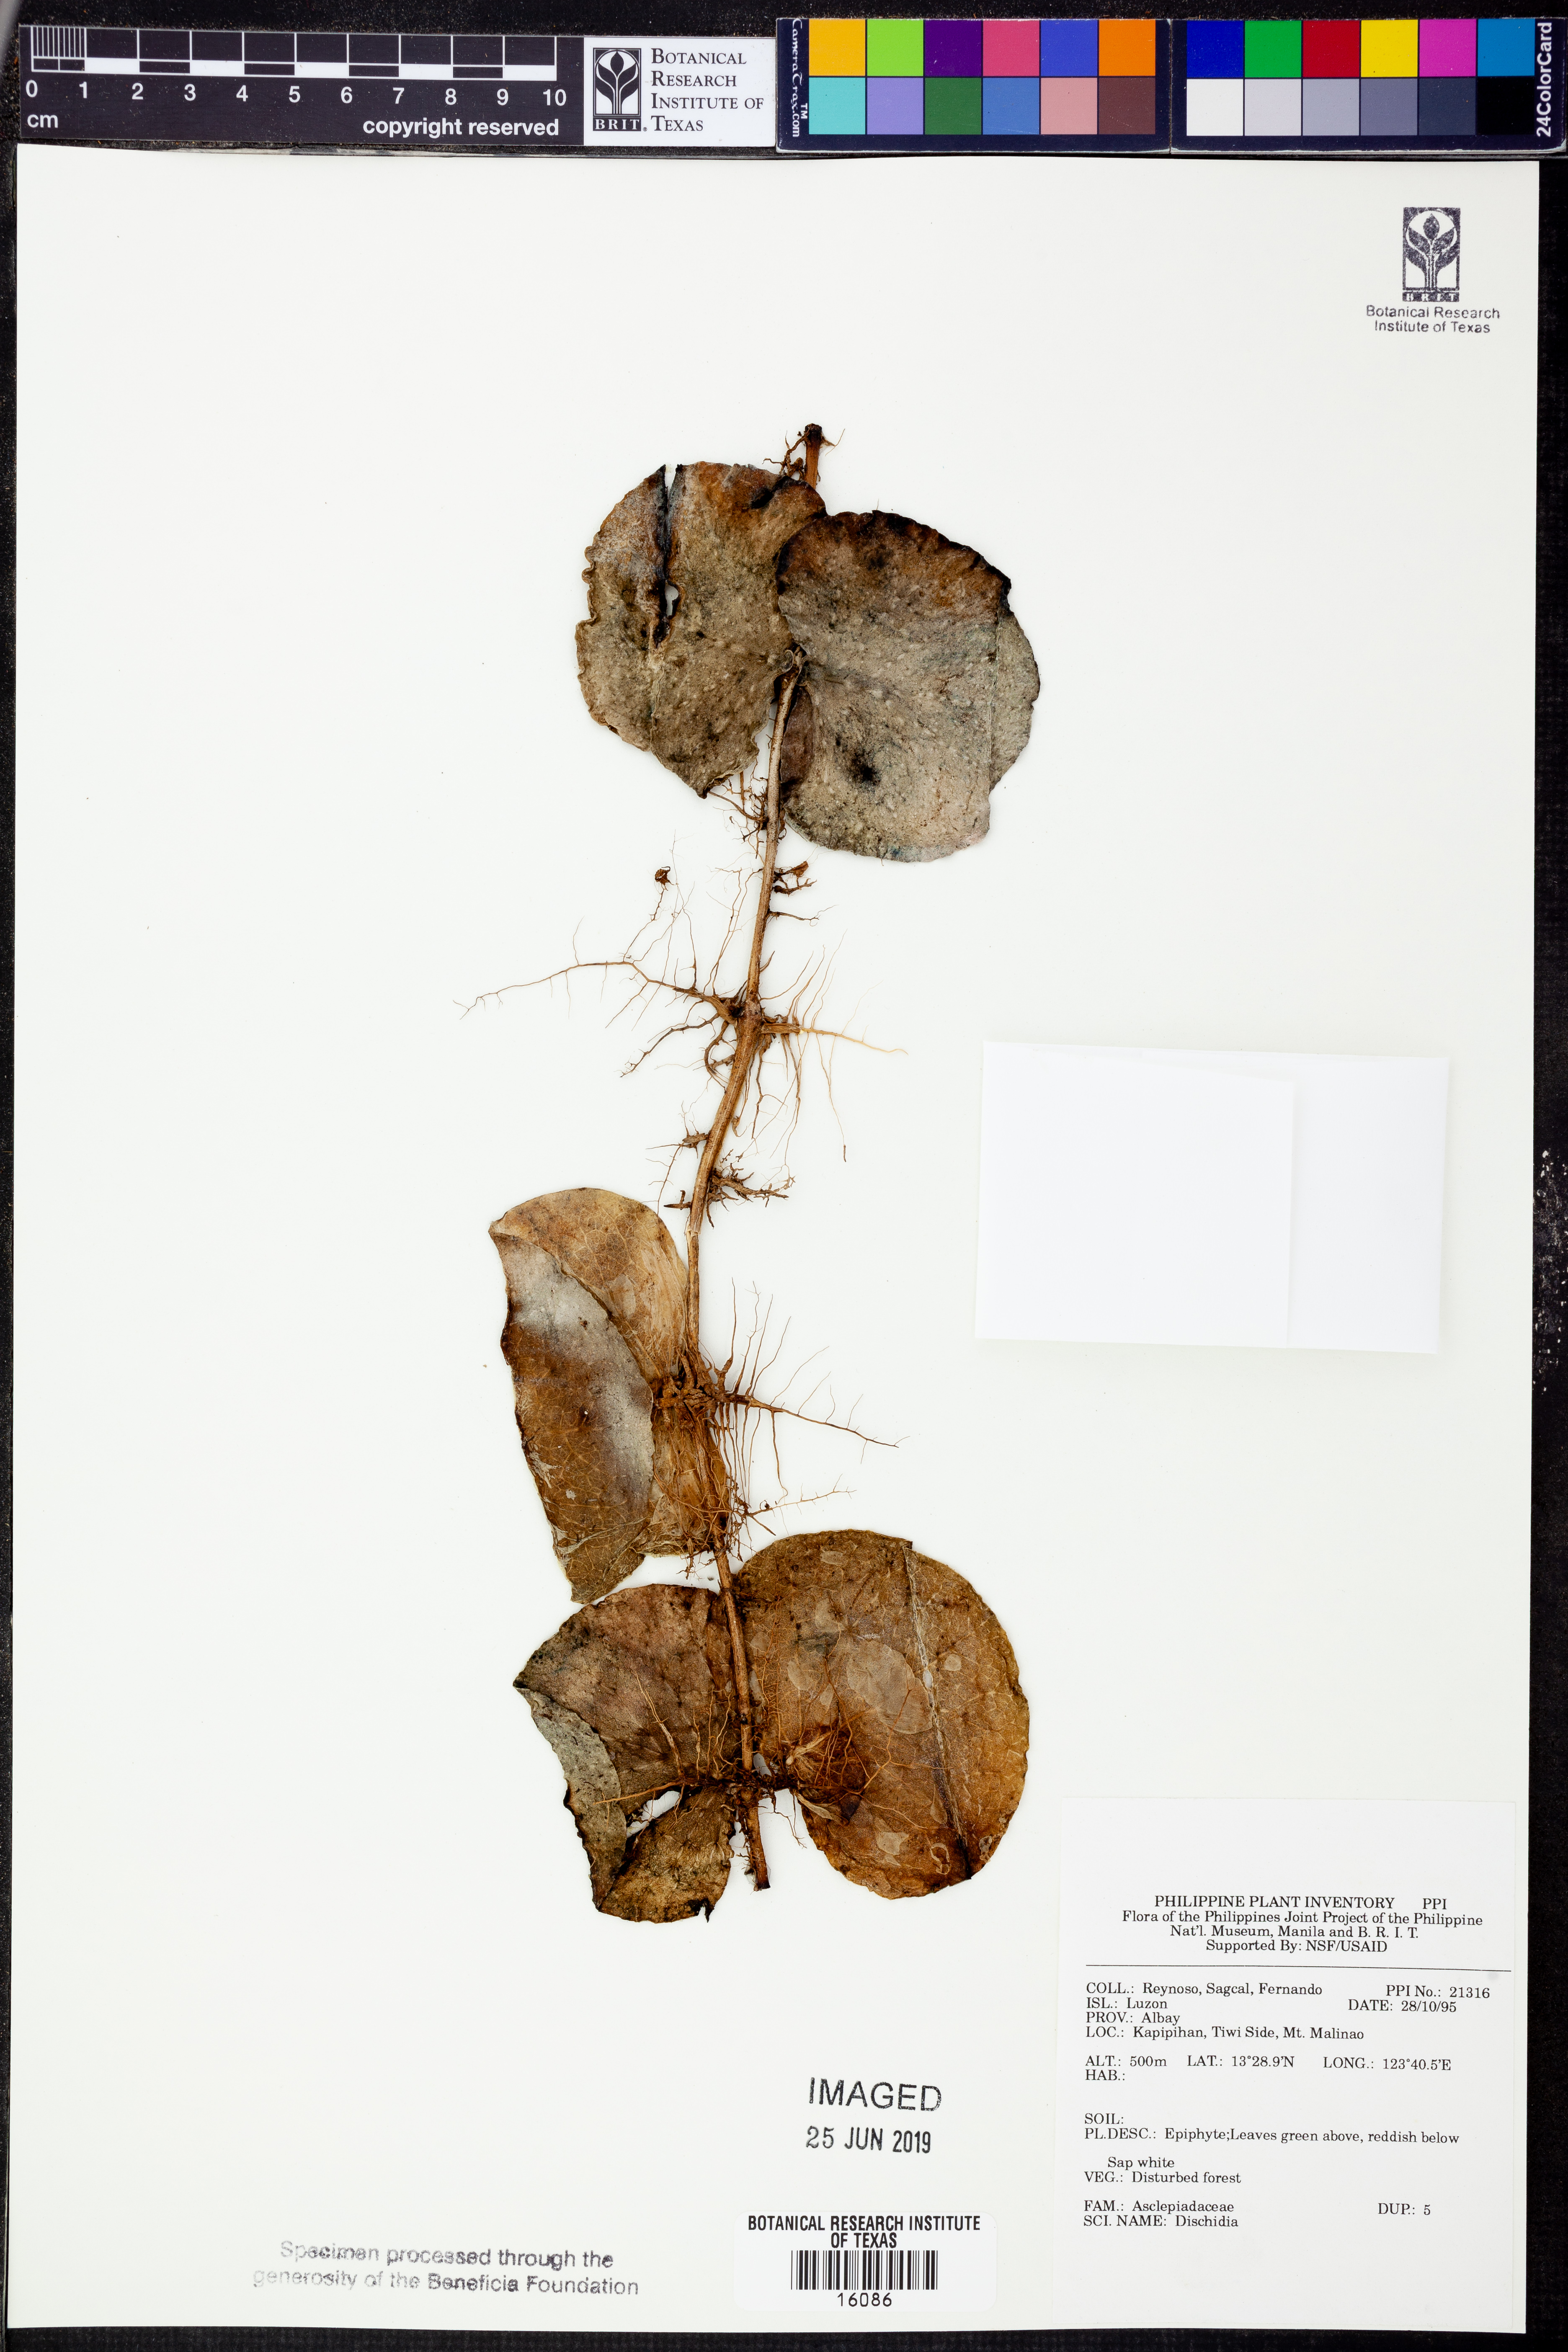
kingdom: Plantae
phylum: Tracheophyta
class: Magnoliopsida
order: Gentianales
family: Apocynaceae
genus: Dischidia
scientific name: Dischidia
